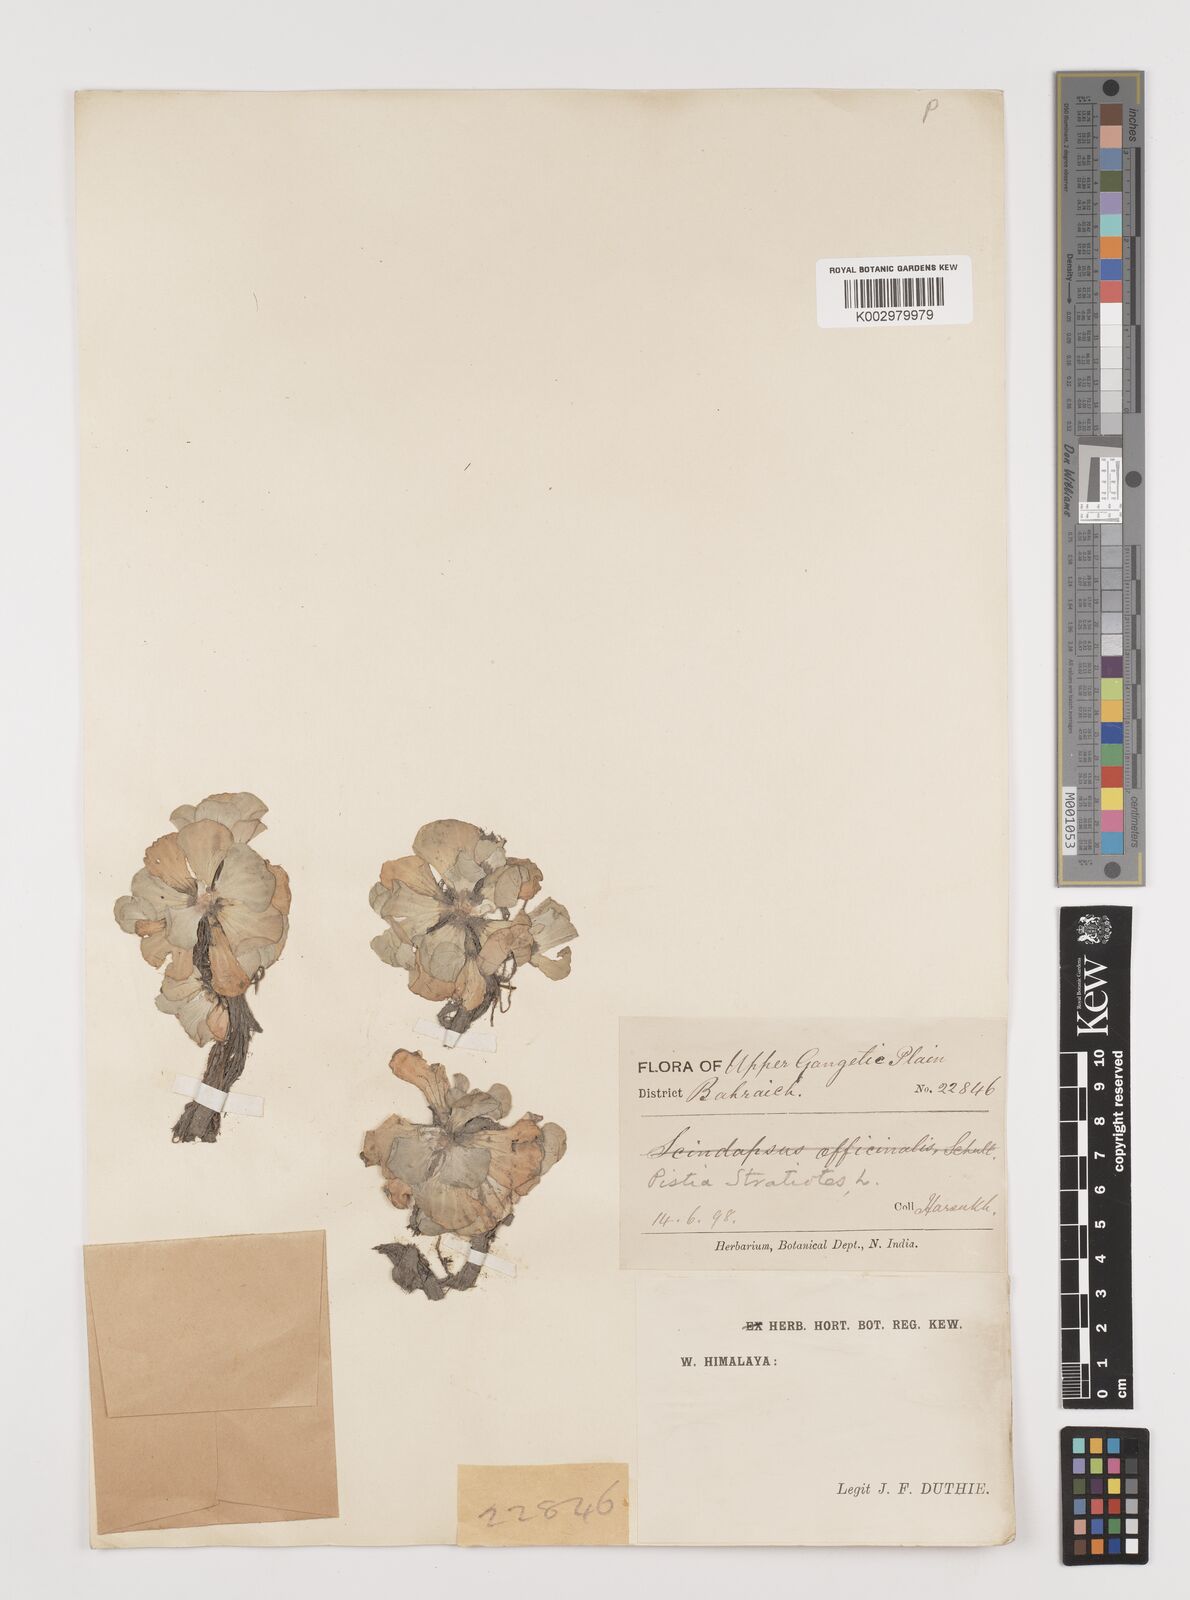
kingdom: Plantae
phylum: Tracheophyta
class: Liliopsida
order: Alismatales
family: Araceae
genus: Pistia
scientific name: Pistia stratiotes
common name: Water lettuce
